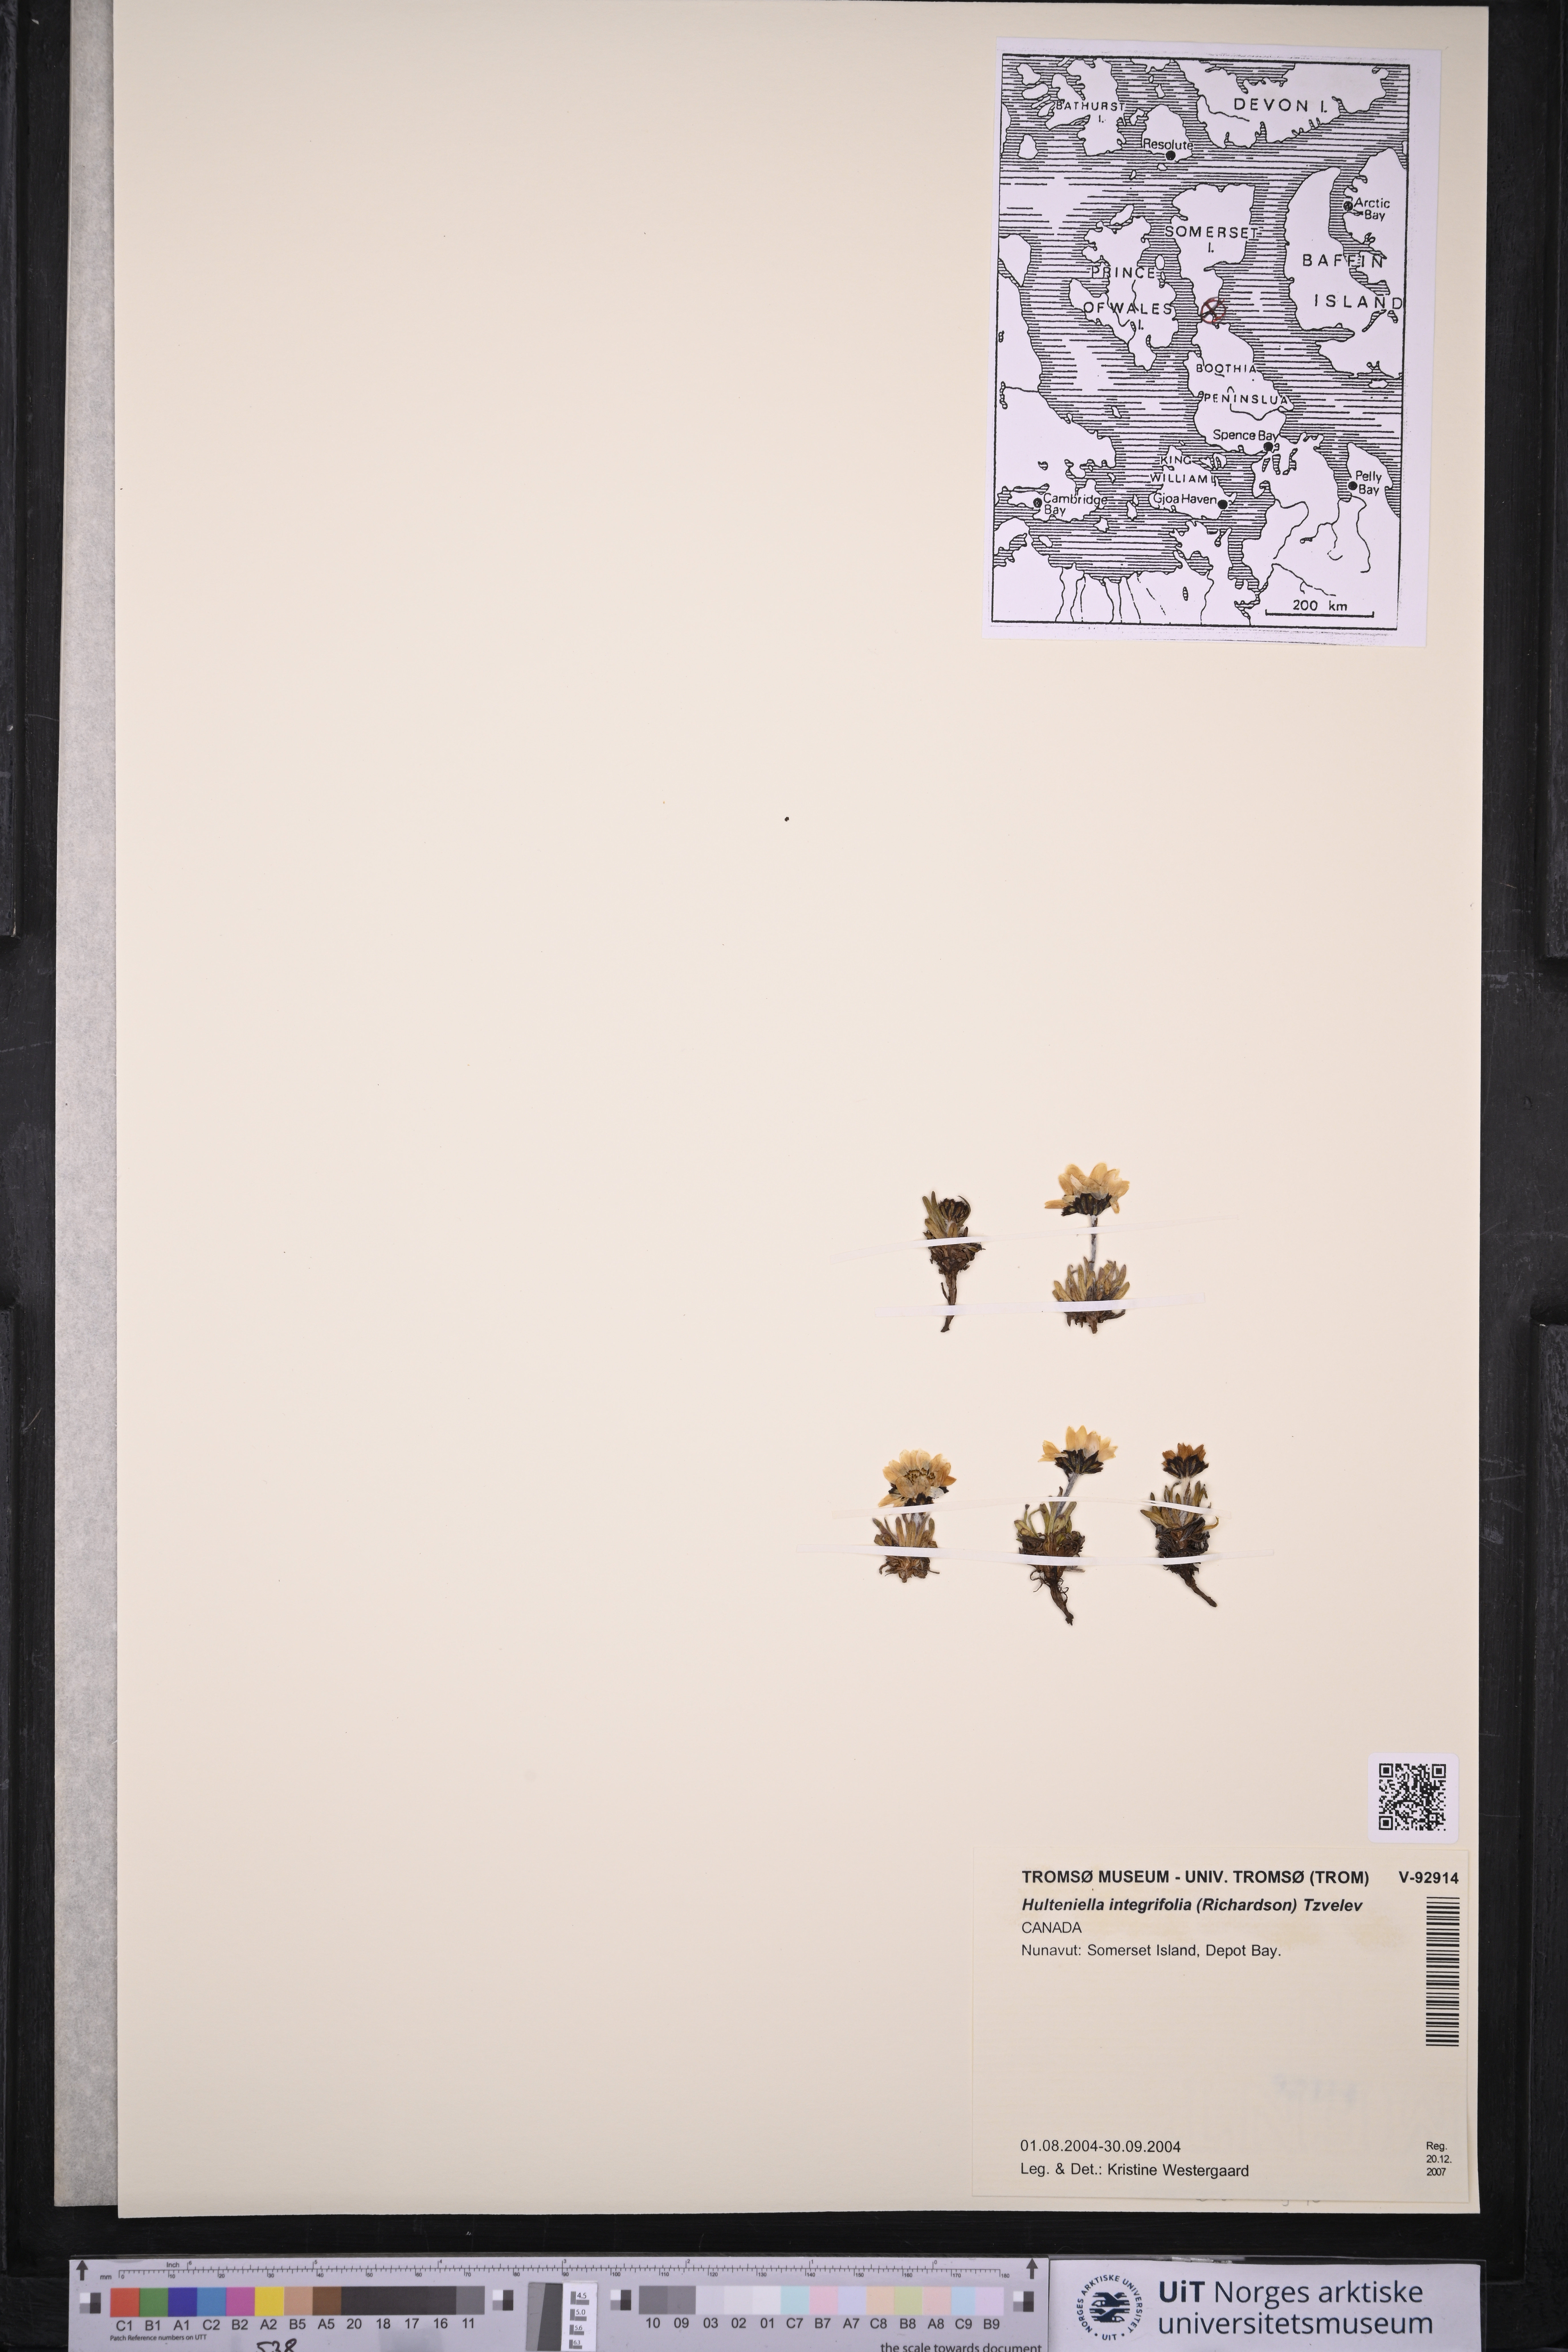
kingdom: Plantae
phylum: Tracheophyta
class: Magnoliopsida
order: Asterales
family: Asteraceae
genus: Arctanthemum
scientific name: Arctanthemum integrifolium
